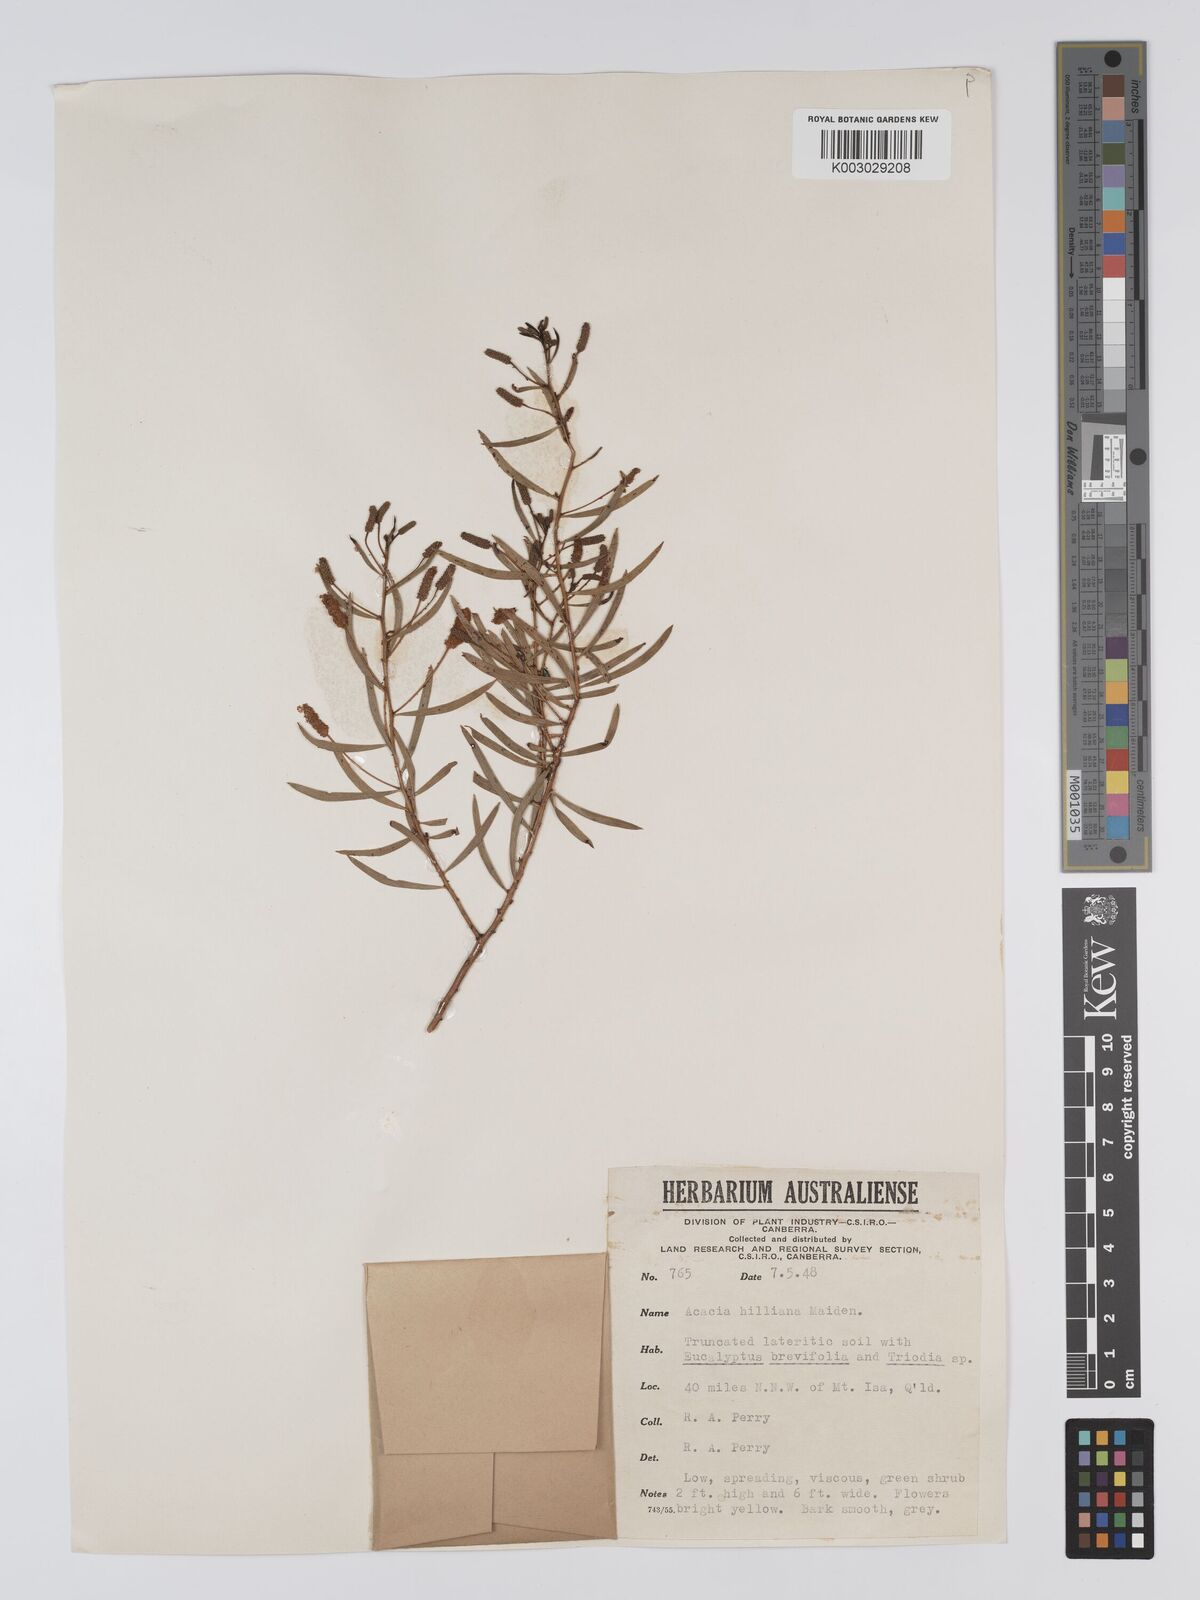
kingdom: Plantae
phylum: Tracheophyta
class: Magnoliopsida
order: Fabales
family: Fabaceae
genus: Acacia
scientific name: Acacia hilliana
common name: Hill's tabletop wattle
